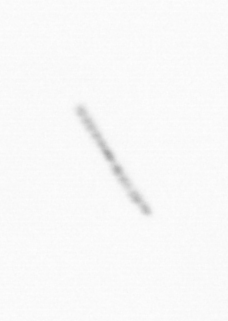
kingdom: Chromista
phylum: Ochrophyta
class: Bacillariophyceae
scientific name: Bacillariophyceae
